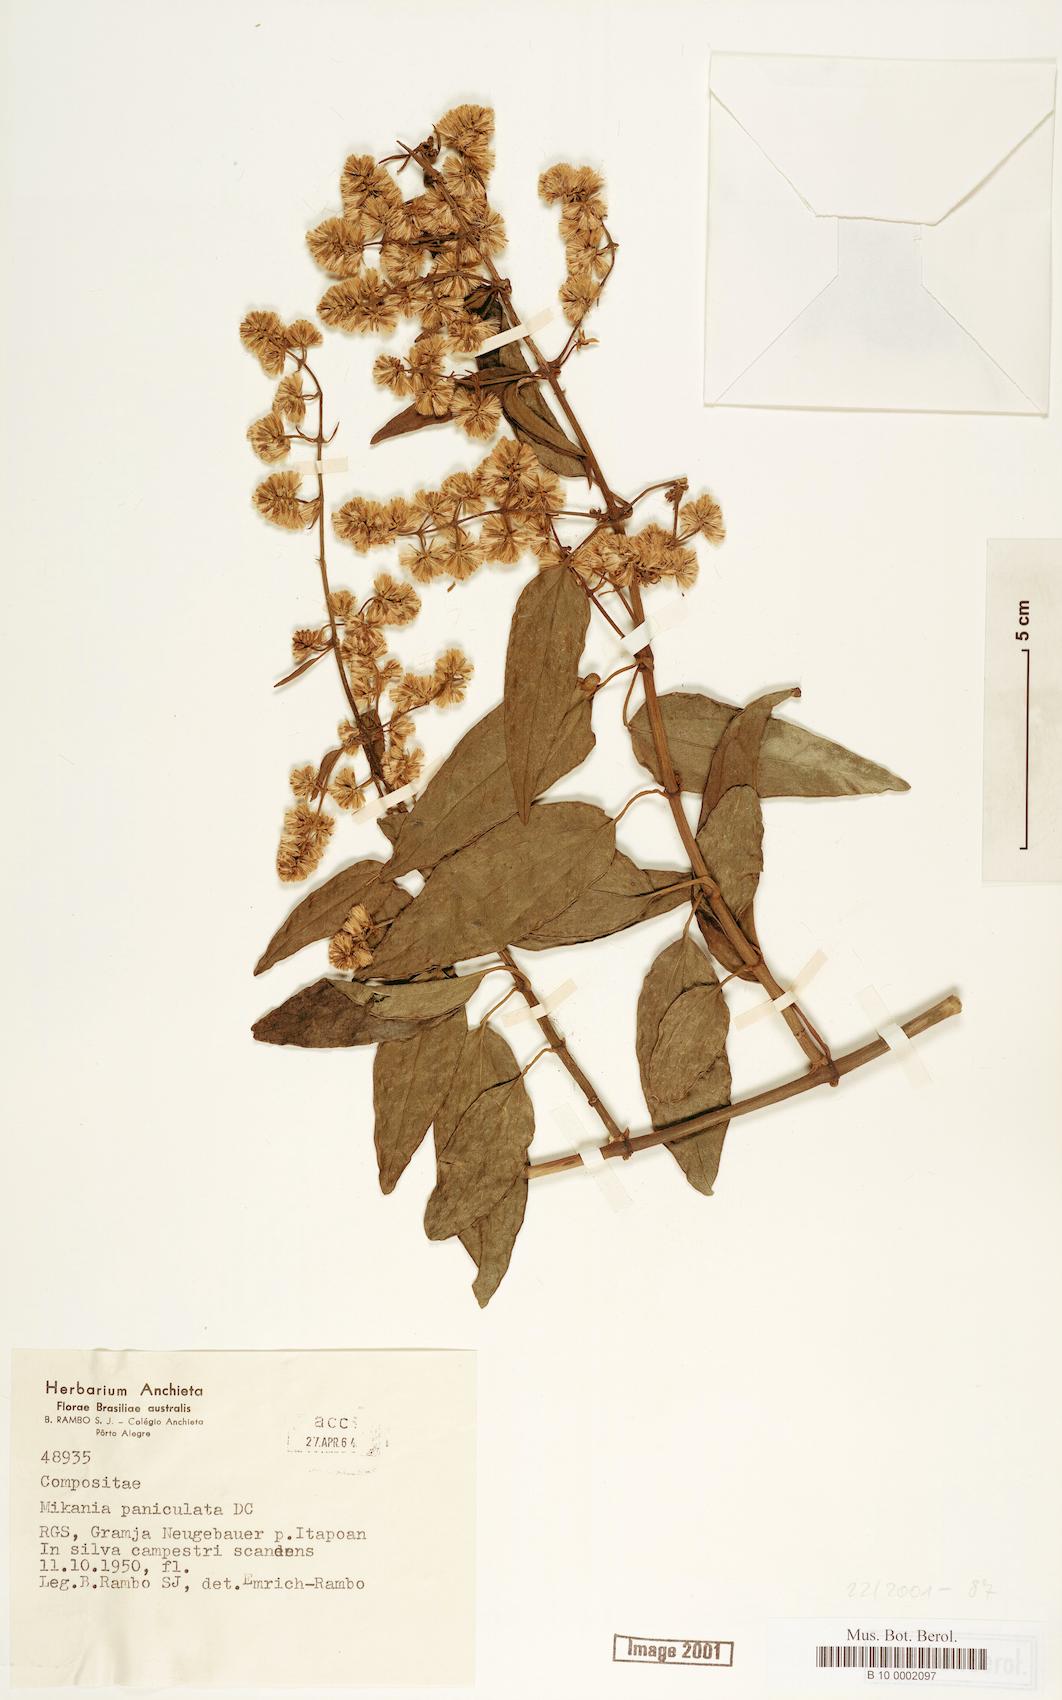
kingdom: Plantae
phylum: Tracheophyta
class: Magnoliopsida
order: Asterales
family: Asteraceae
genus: Mikania
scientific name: Mikania paniculata
